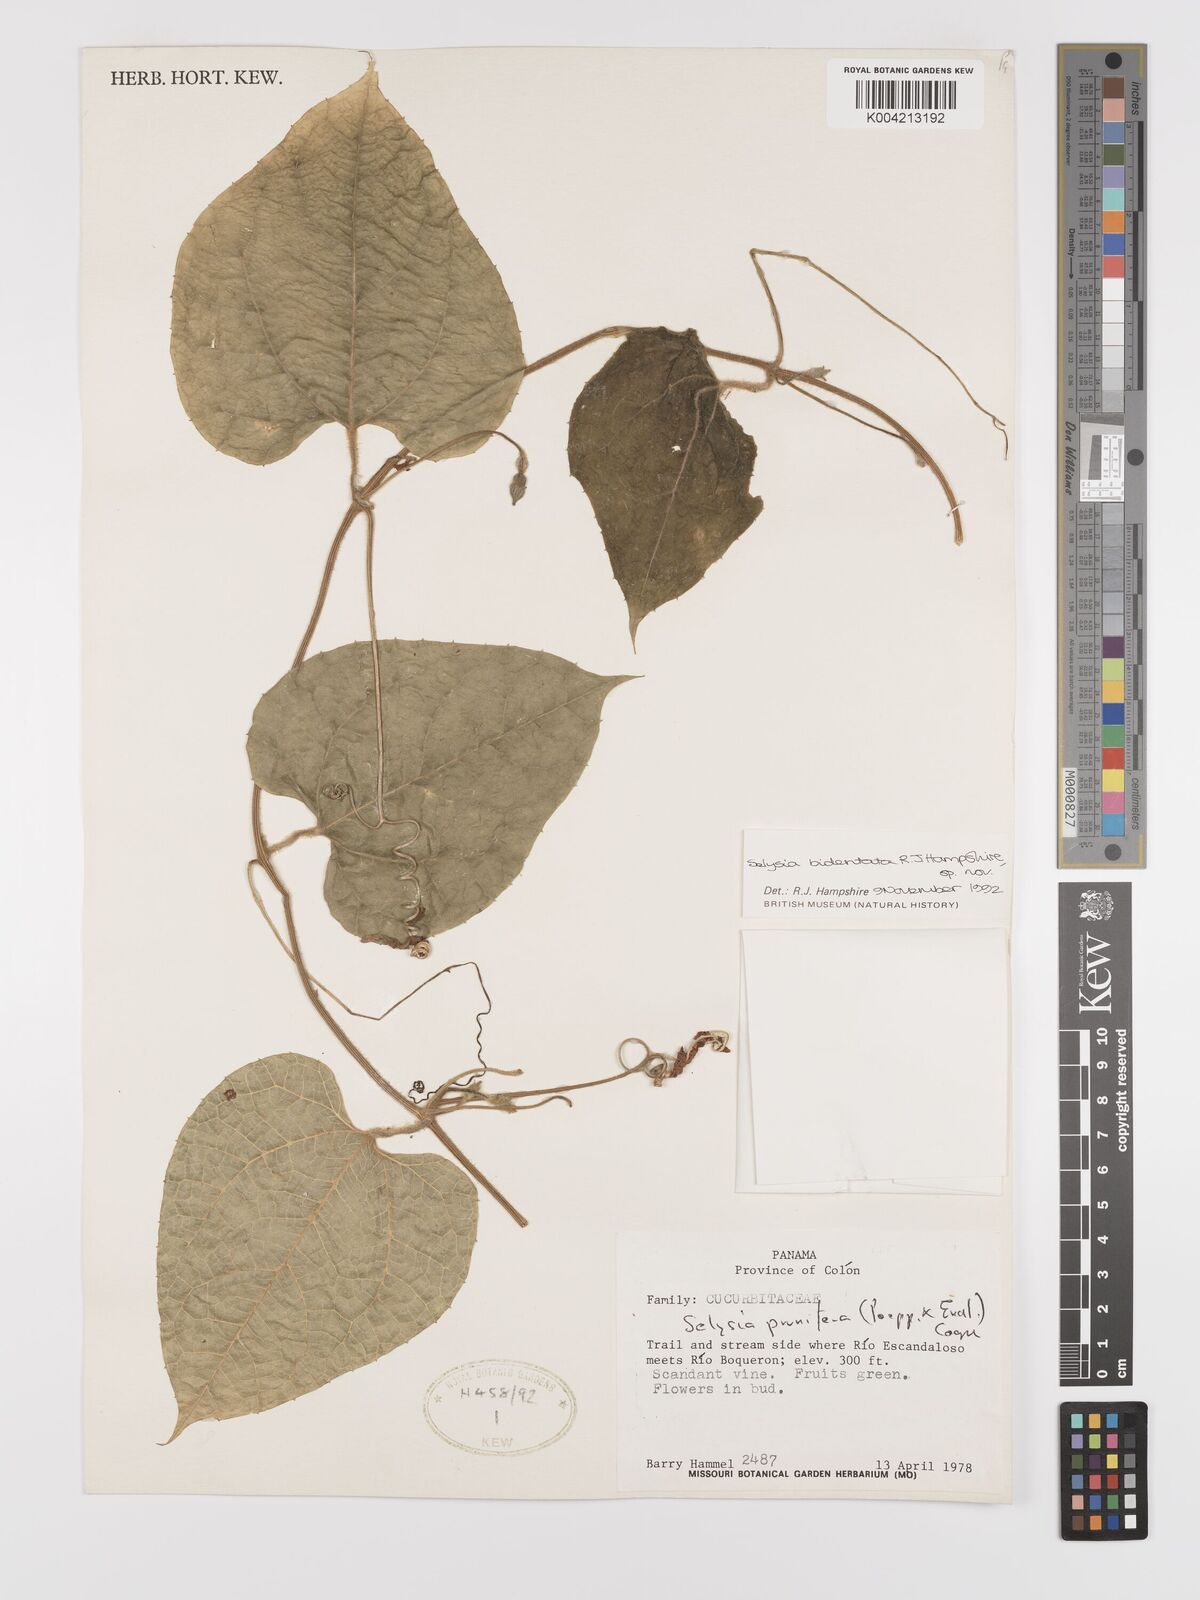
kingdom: Plantae
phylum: Tracheophyta
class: Magnoliopsida
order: Cucurbitales
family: Cucurbitaceae
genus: Cayaponia
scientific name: Cayaponia bidentata
